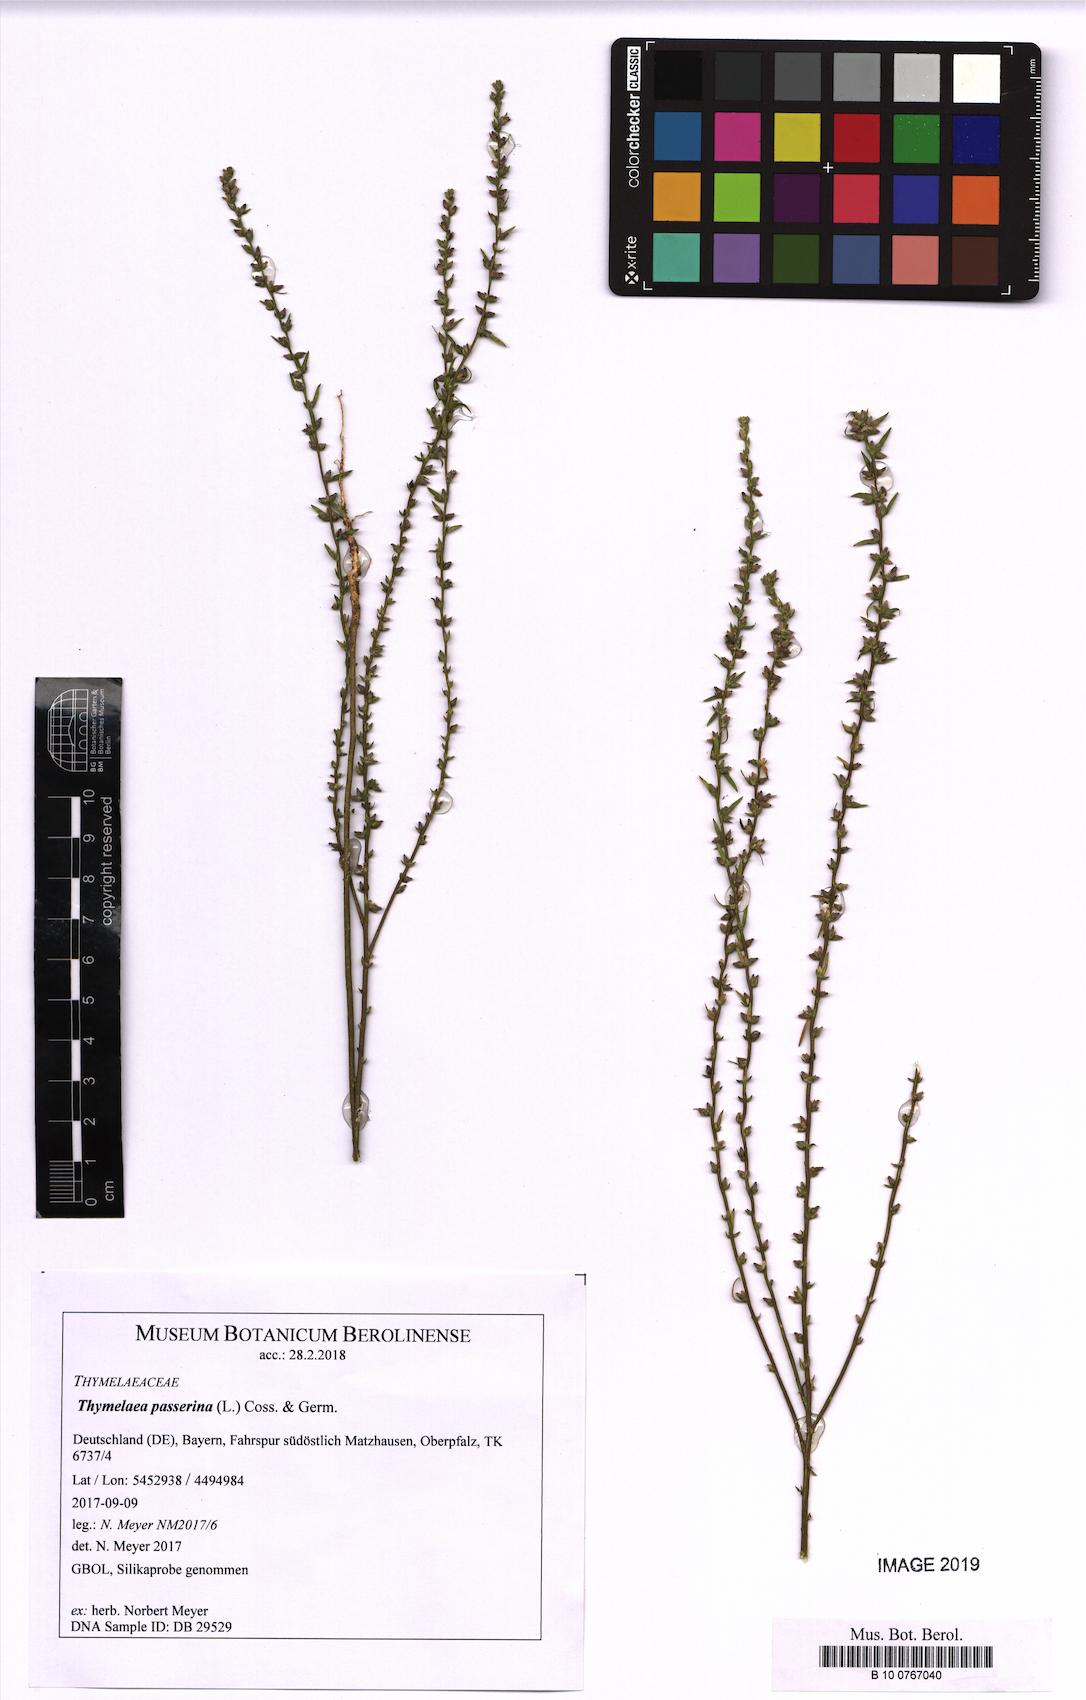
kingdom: Plantae
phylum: Tracheophyta
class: Magnoliopsida
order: Malvales
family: Thymelaeaceae
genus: Thymelaea
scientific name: Thymelaea passerina
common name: Annual thymelaea
